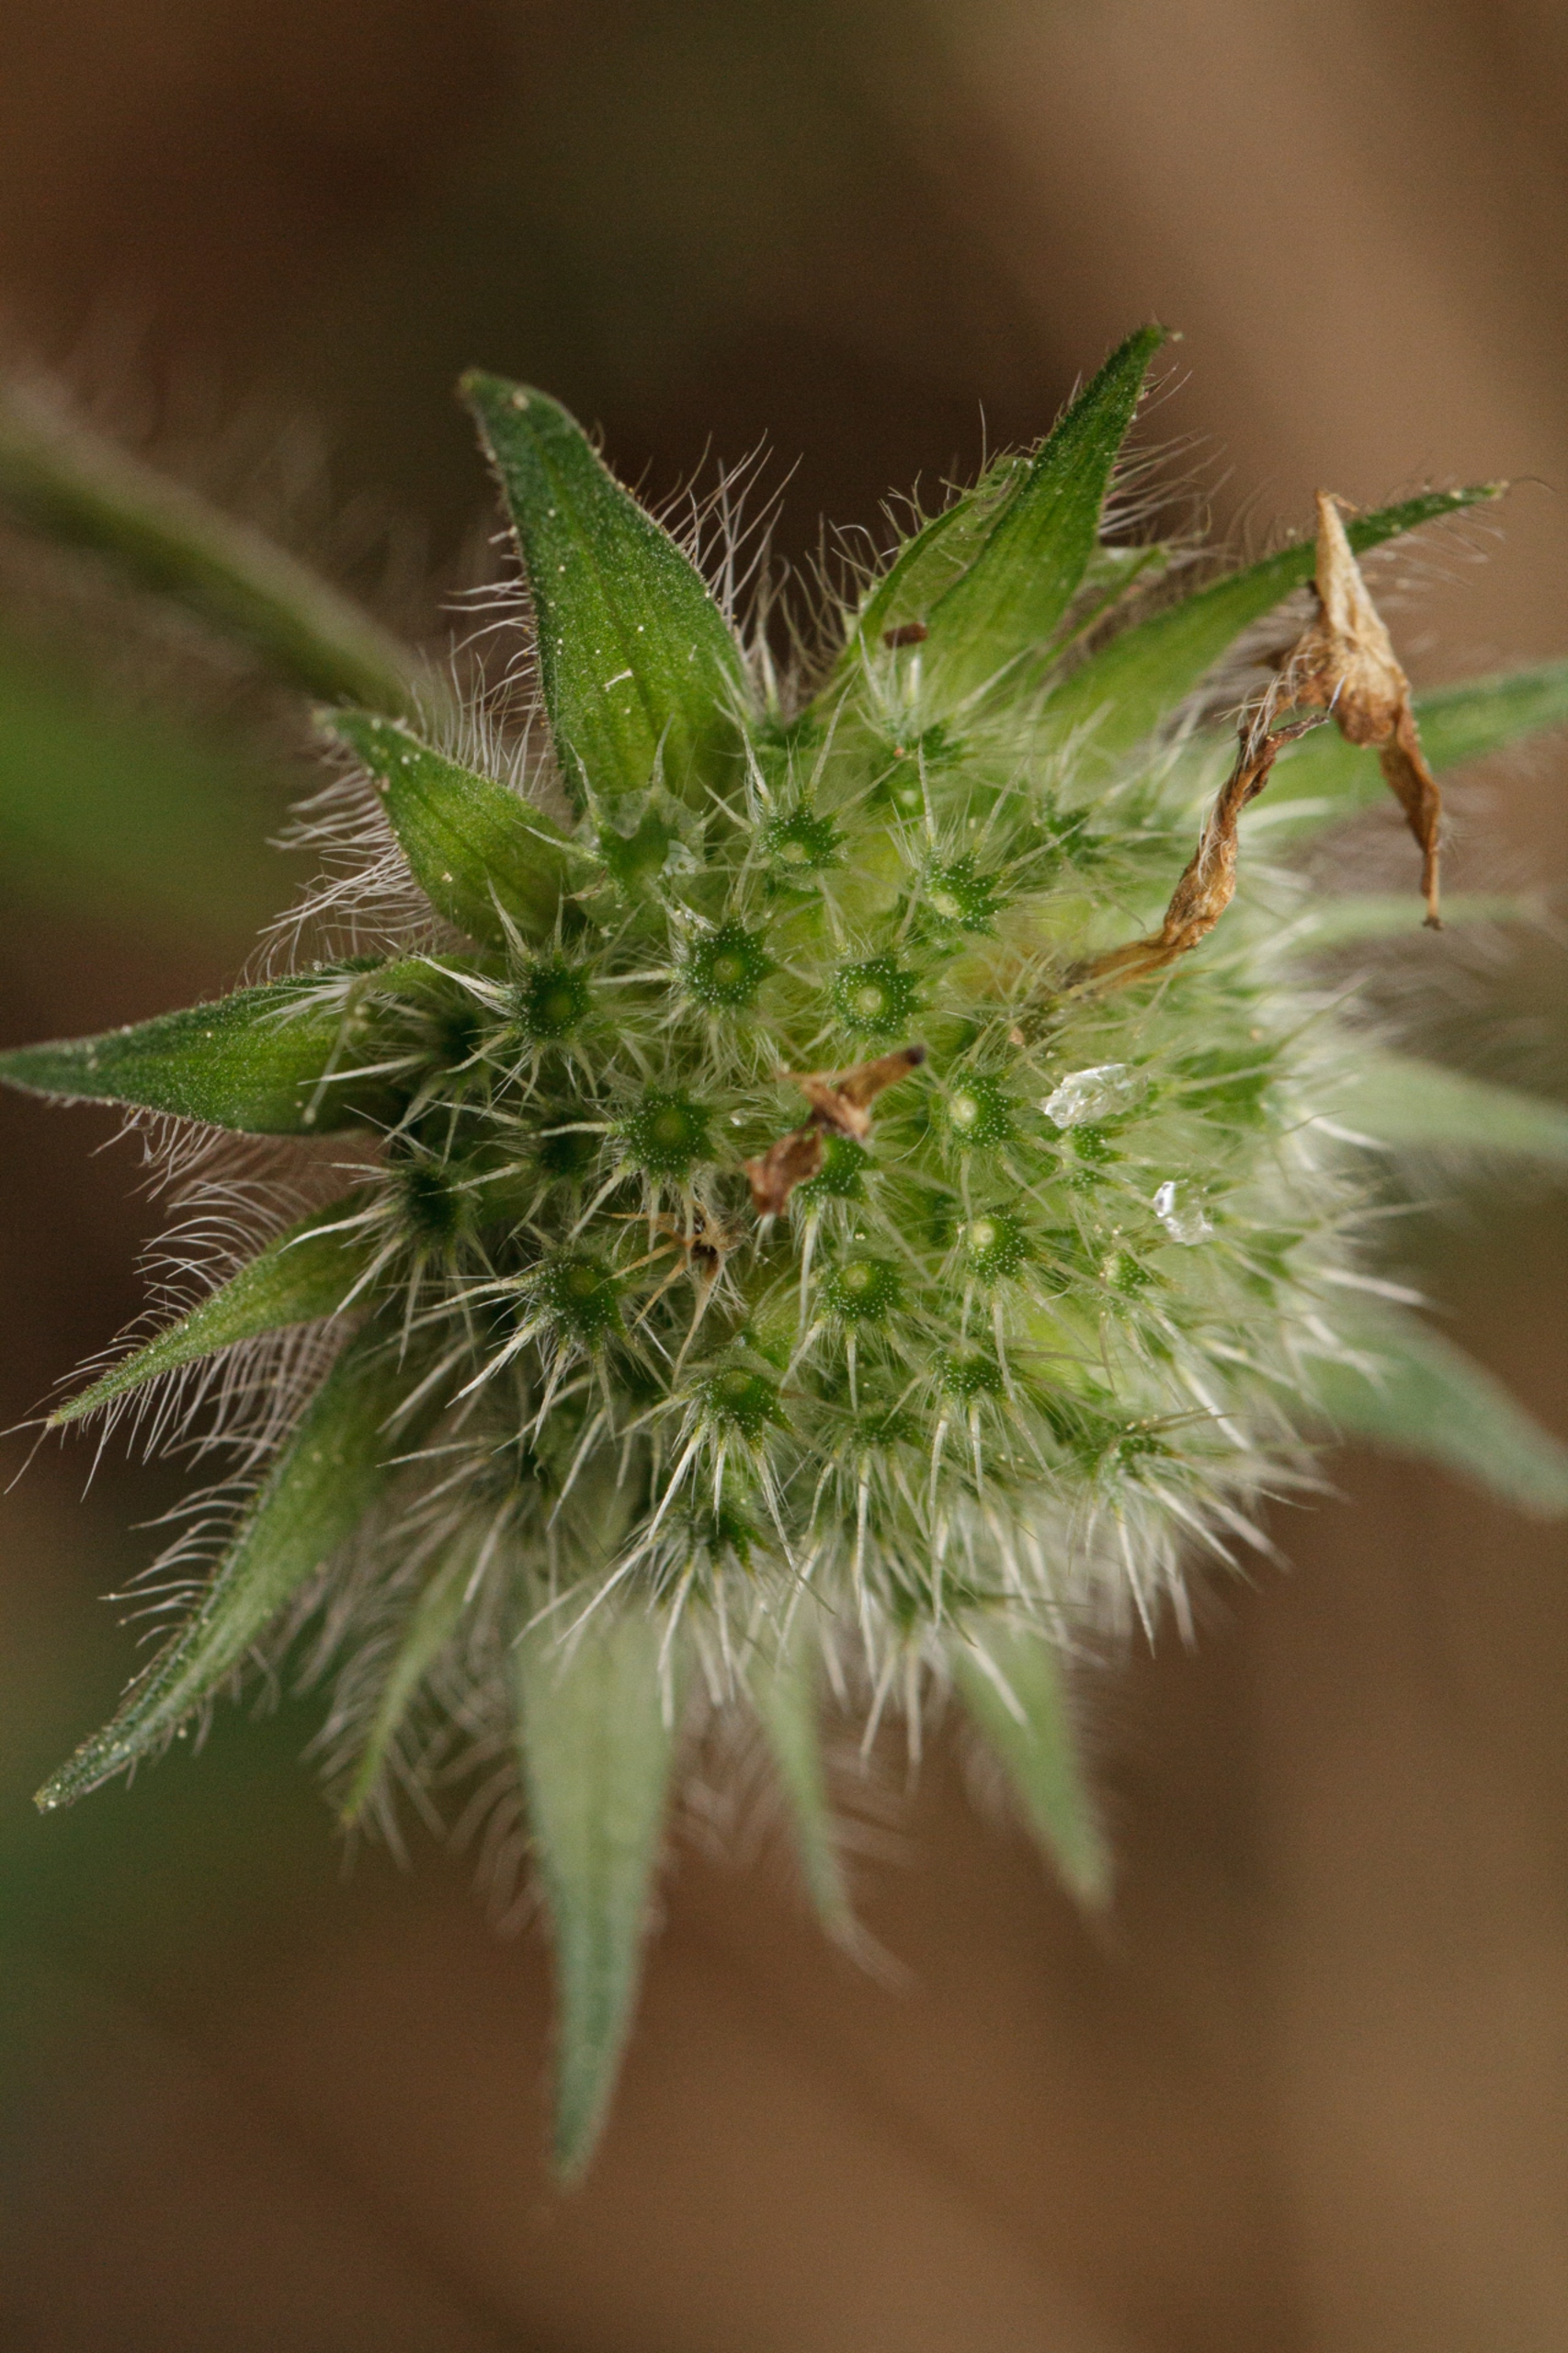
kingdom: Plantae
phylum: Tracheophyta
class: Magnoliopsida
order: Dipsacales
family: Caprifoliaceae
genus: Knautia
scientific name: Knautia arvensis
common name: Blåhat
